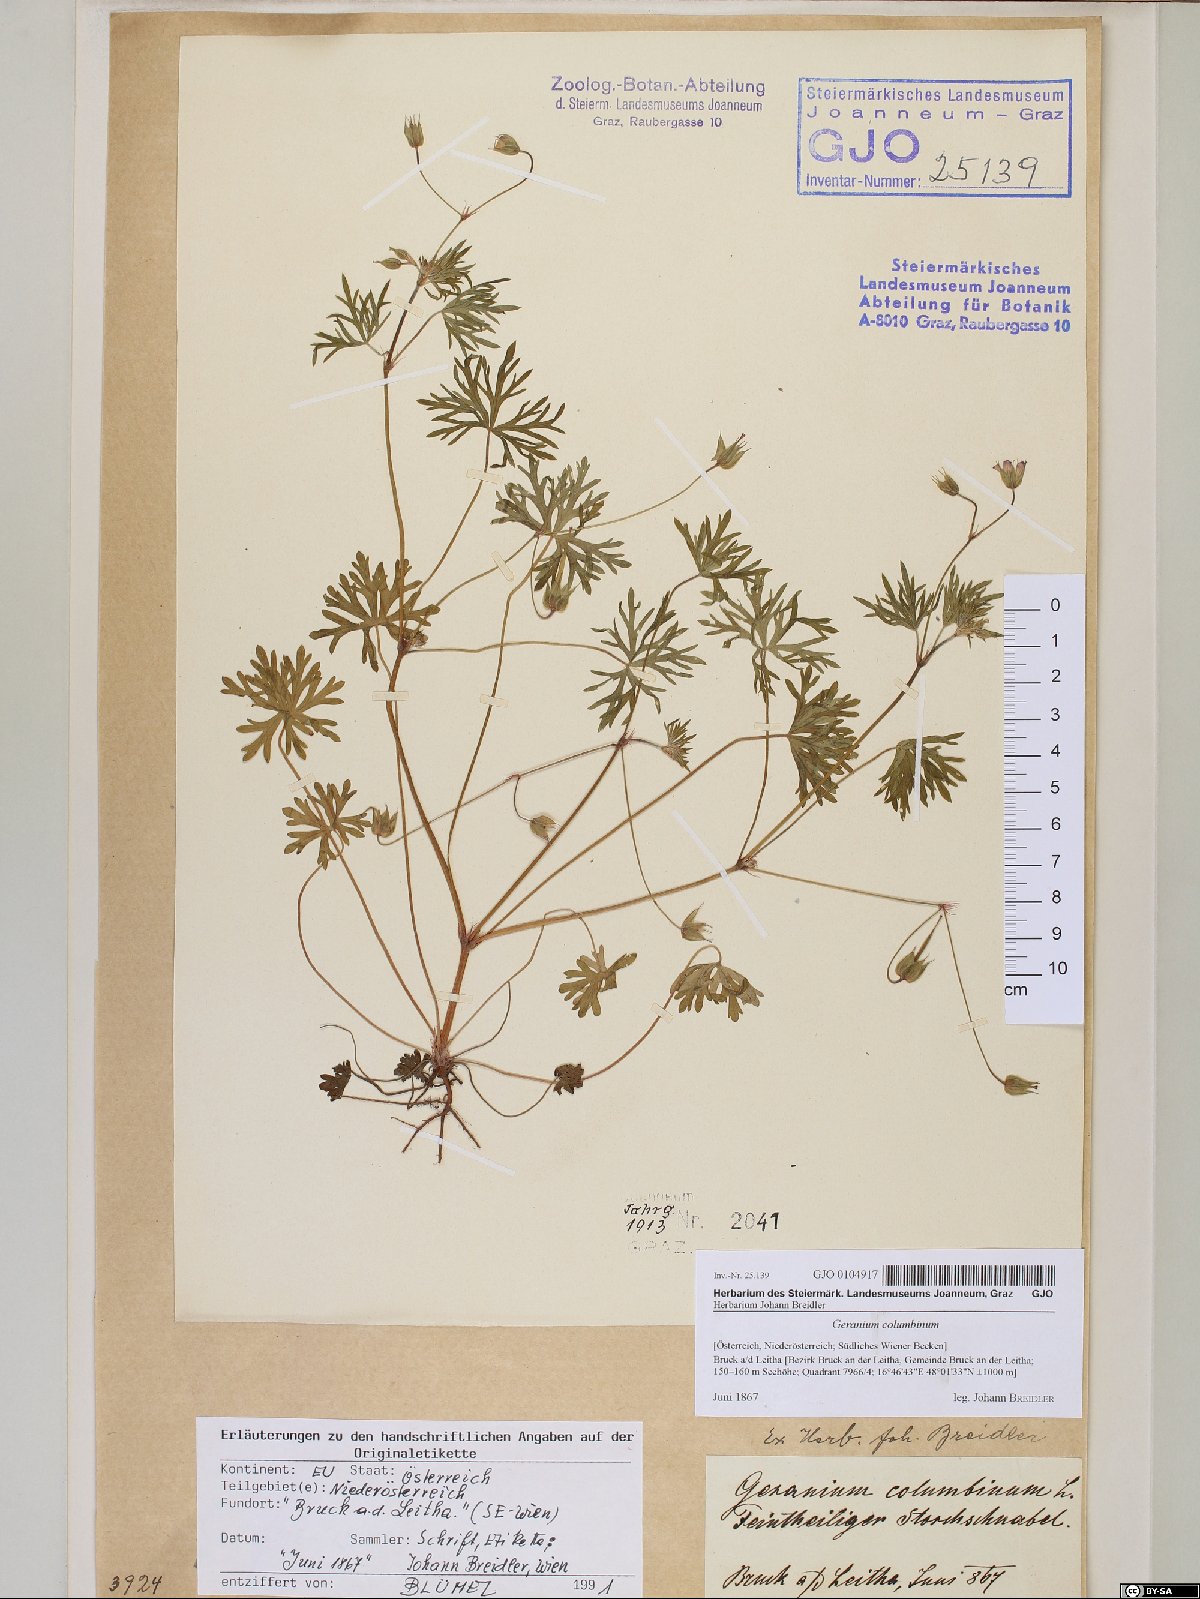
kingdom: Plantae
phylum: Tracheophyta
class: Magnoliopsida
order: Geraniales
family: Geraniaceae
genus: Geranium
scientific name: Geranium columbinum
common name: Long-stalked crane's-bill
